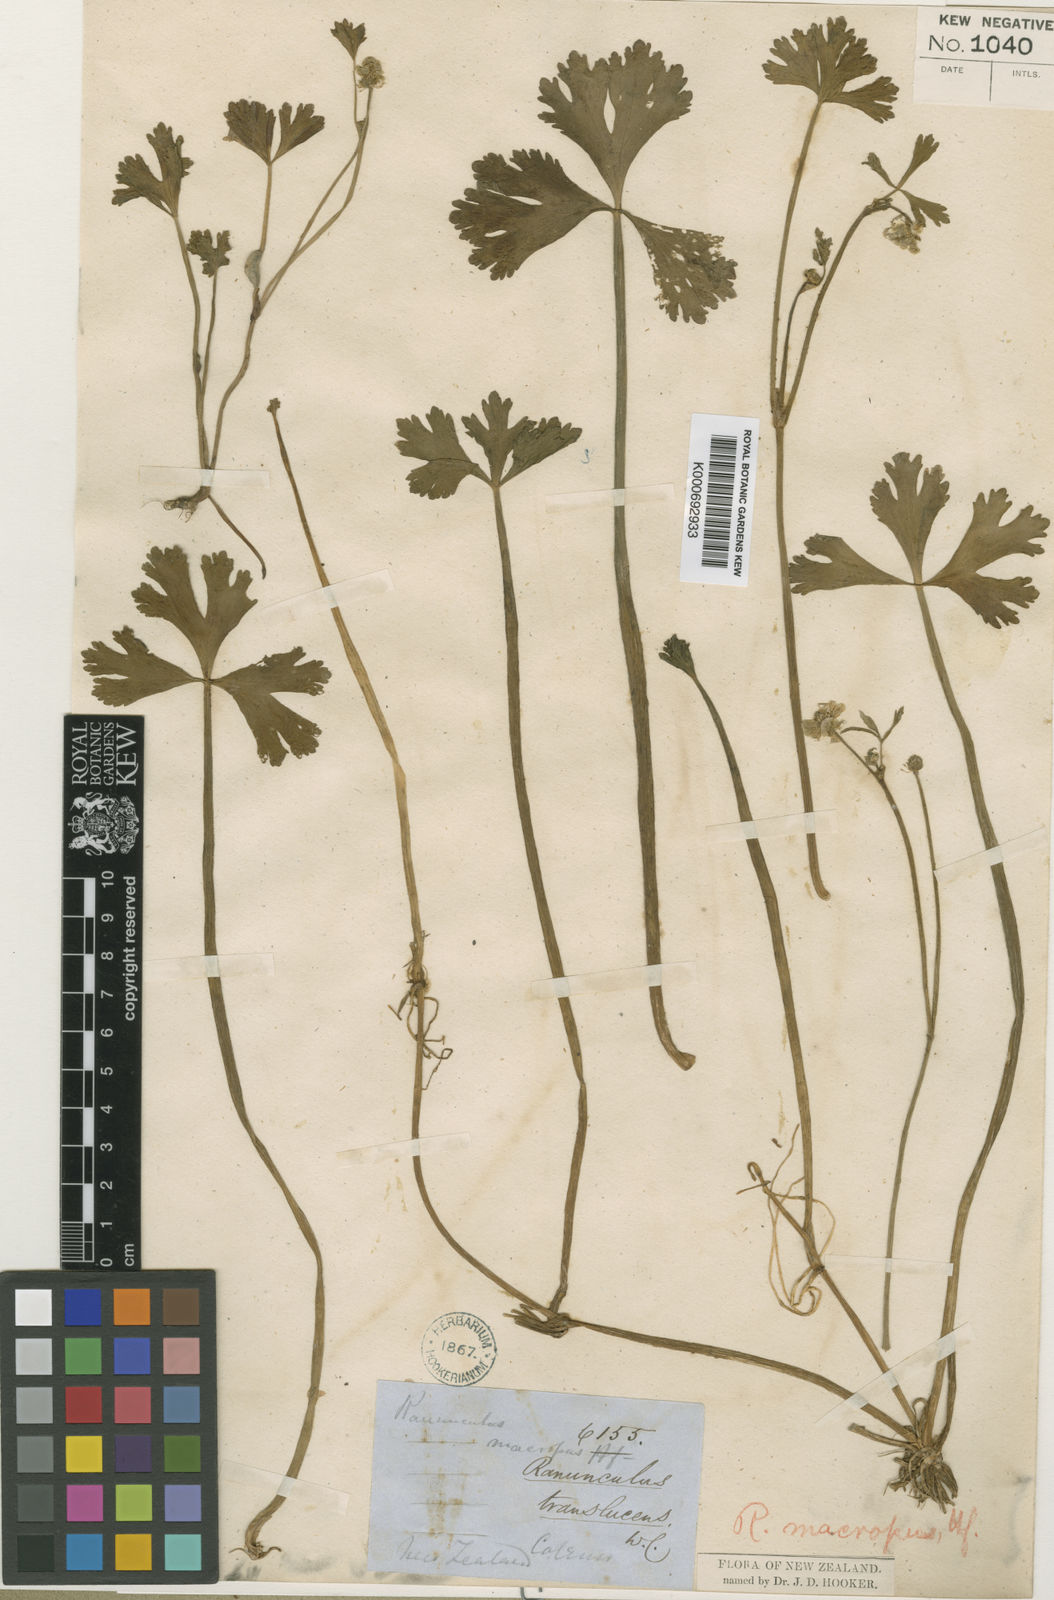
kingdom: Plantae
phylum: Tracheophyta
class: Magnoliopsida
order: Ranunculales
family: Ranunculaceae
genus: Ranunculus
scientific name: Ranunculus macropus
